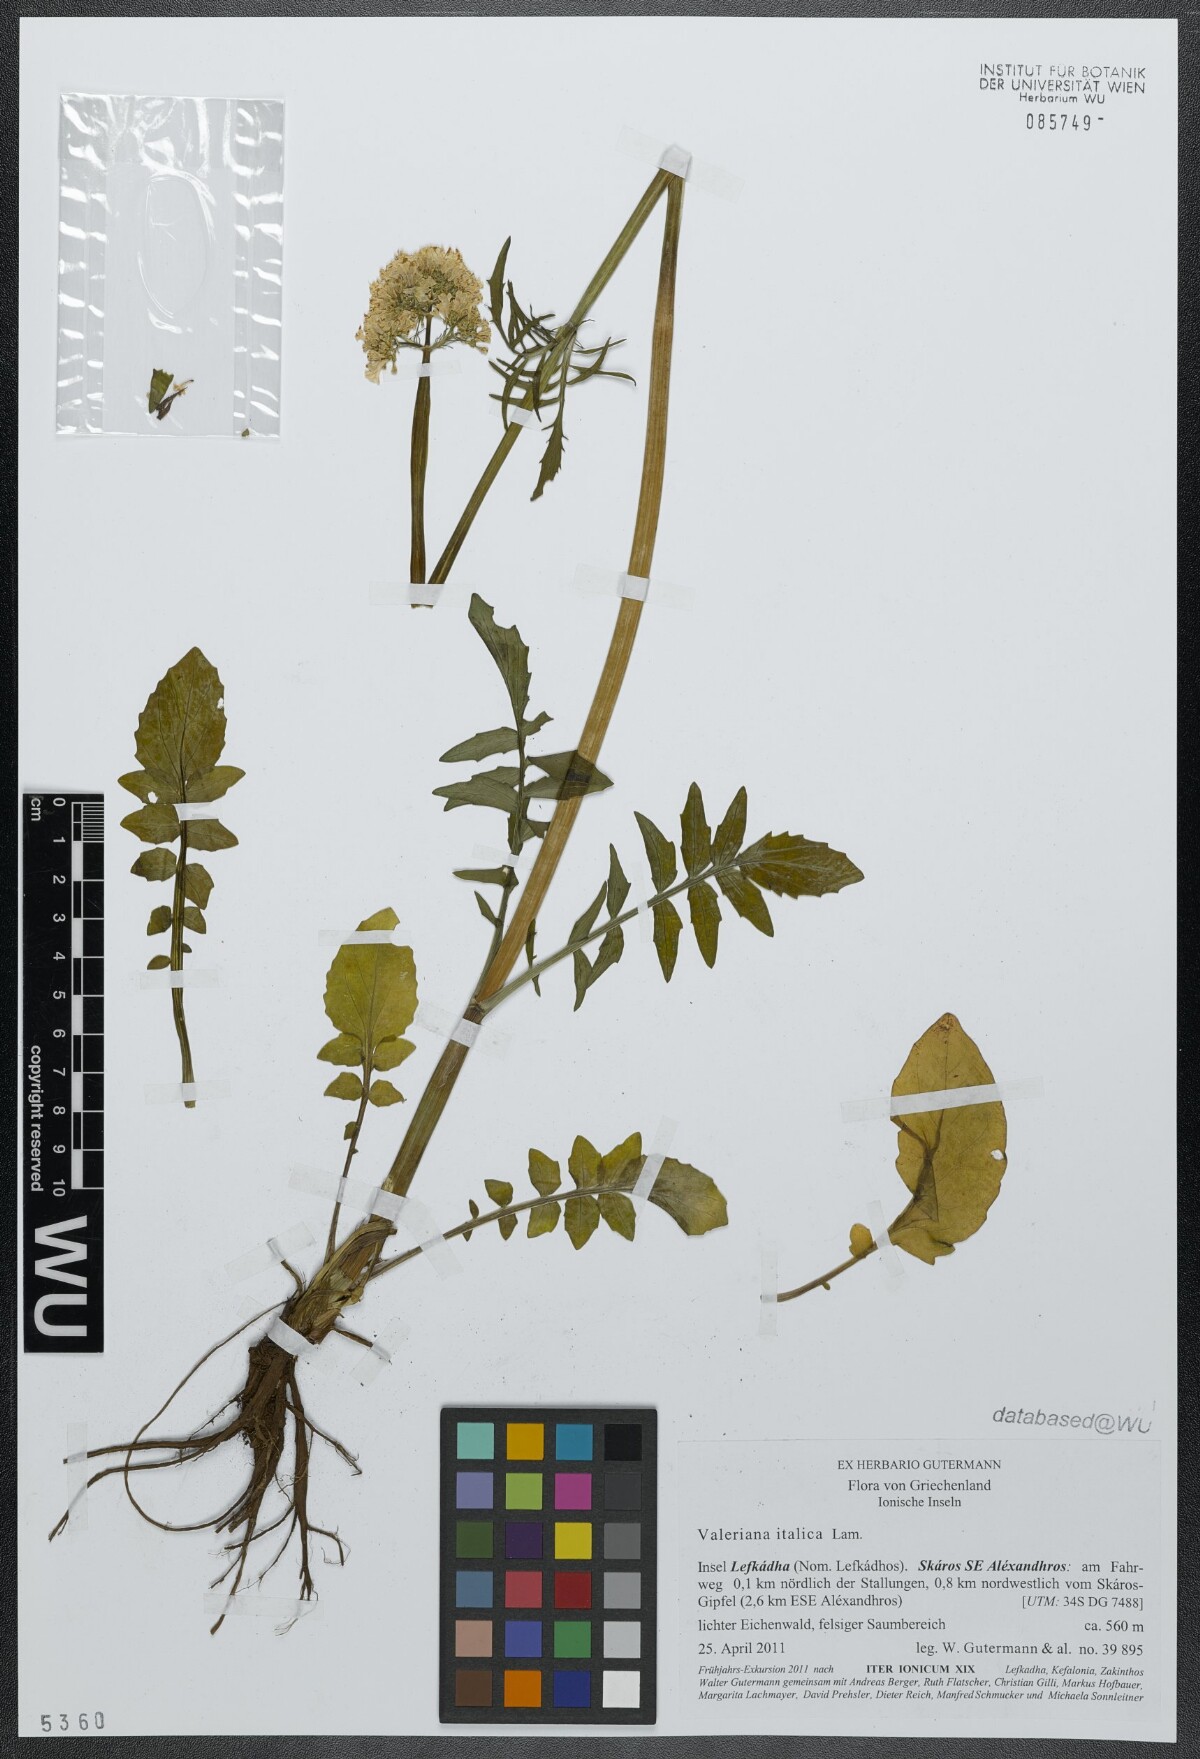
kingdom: Plantae
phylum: Tracheophyta
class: Magnoliopsida
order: Dipsacales
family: Caprifoliaceae
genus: Valeriana
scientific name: Valeriana dioscoridis
